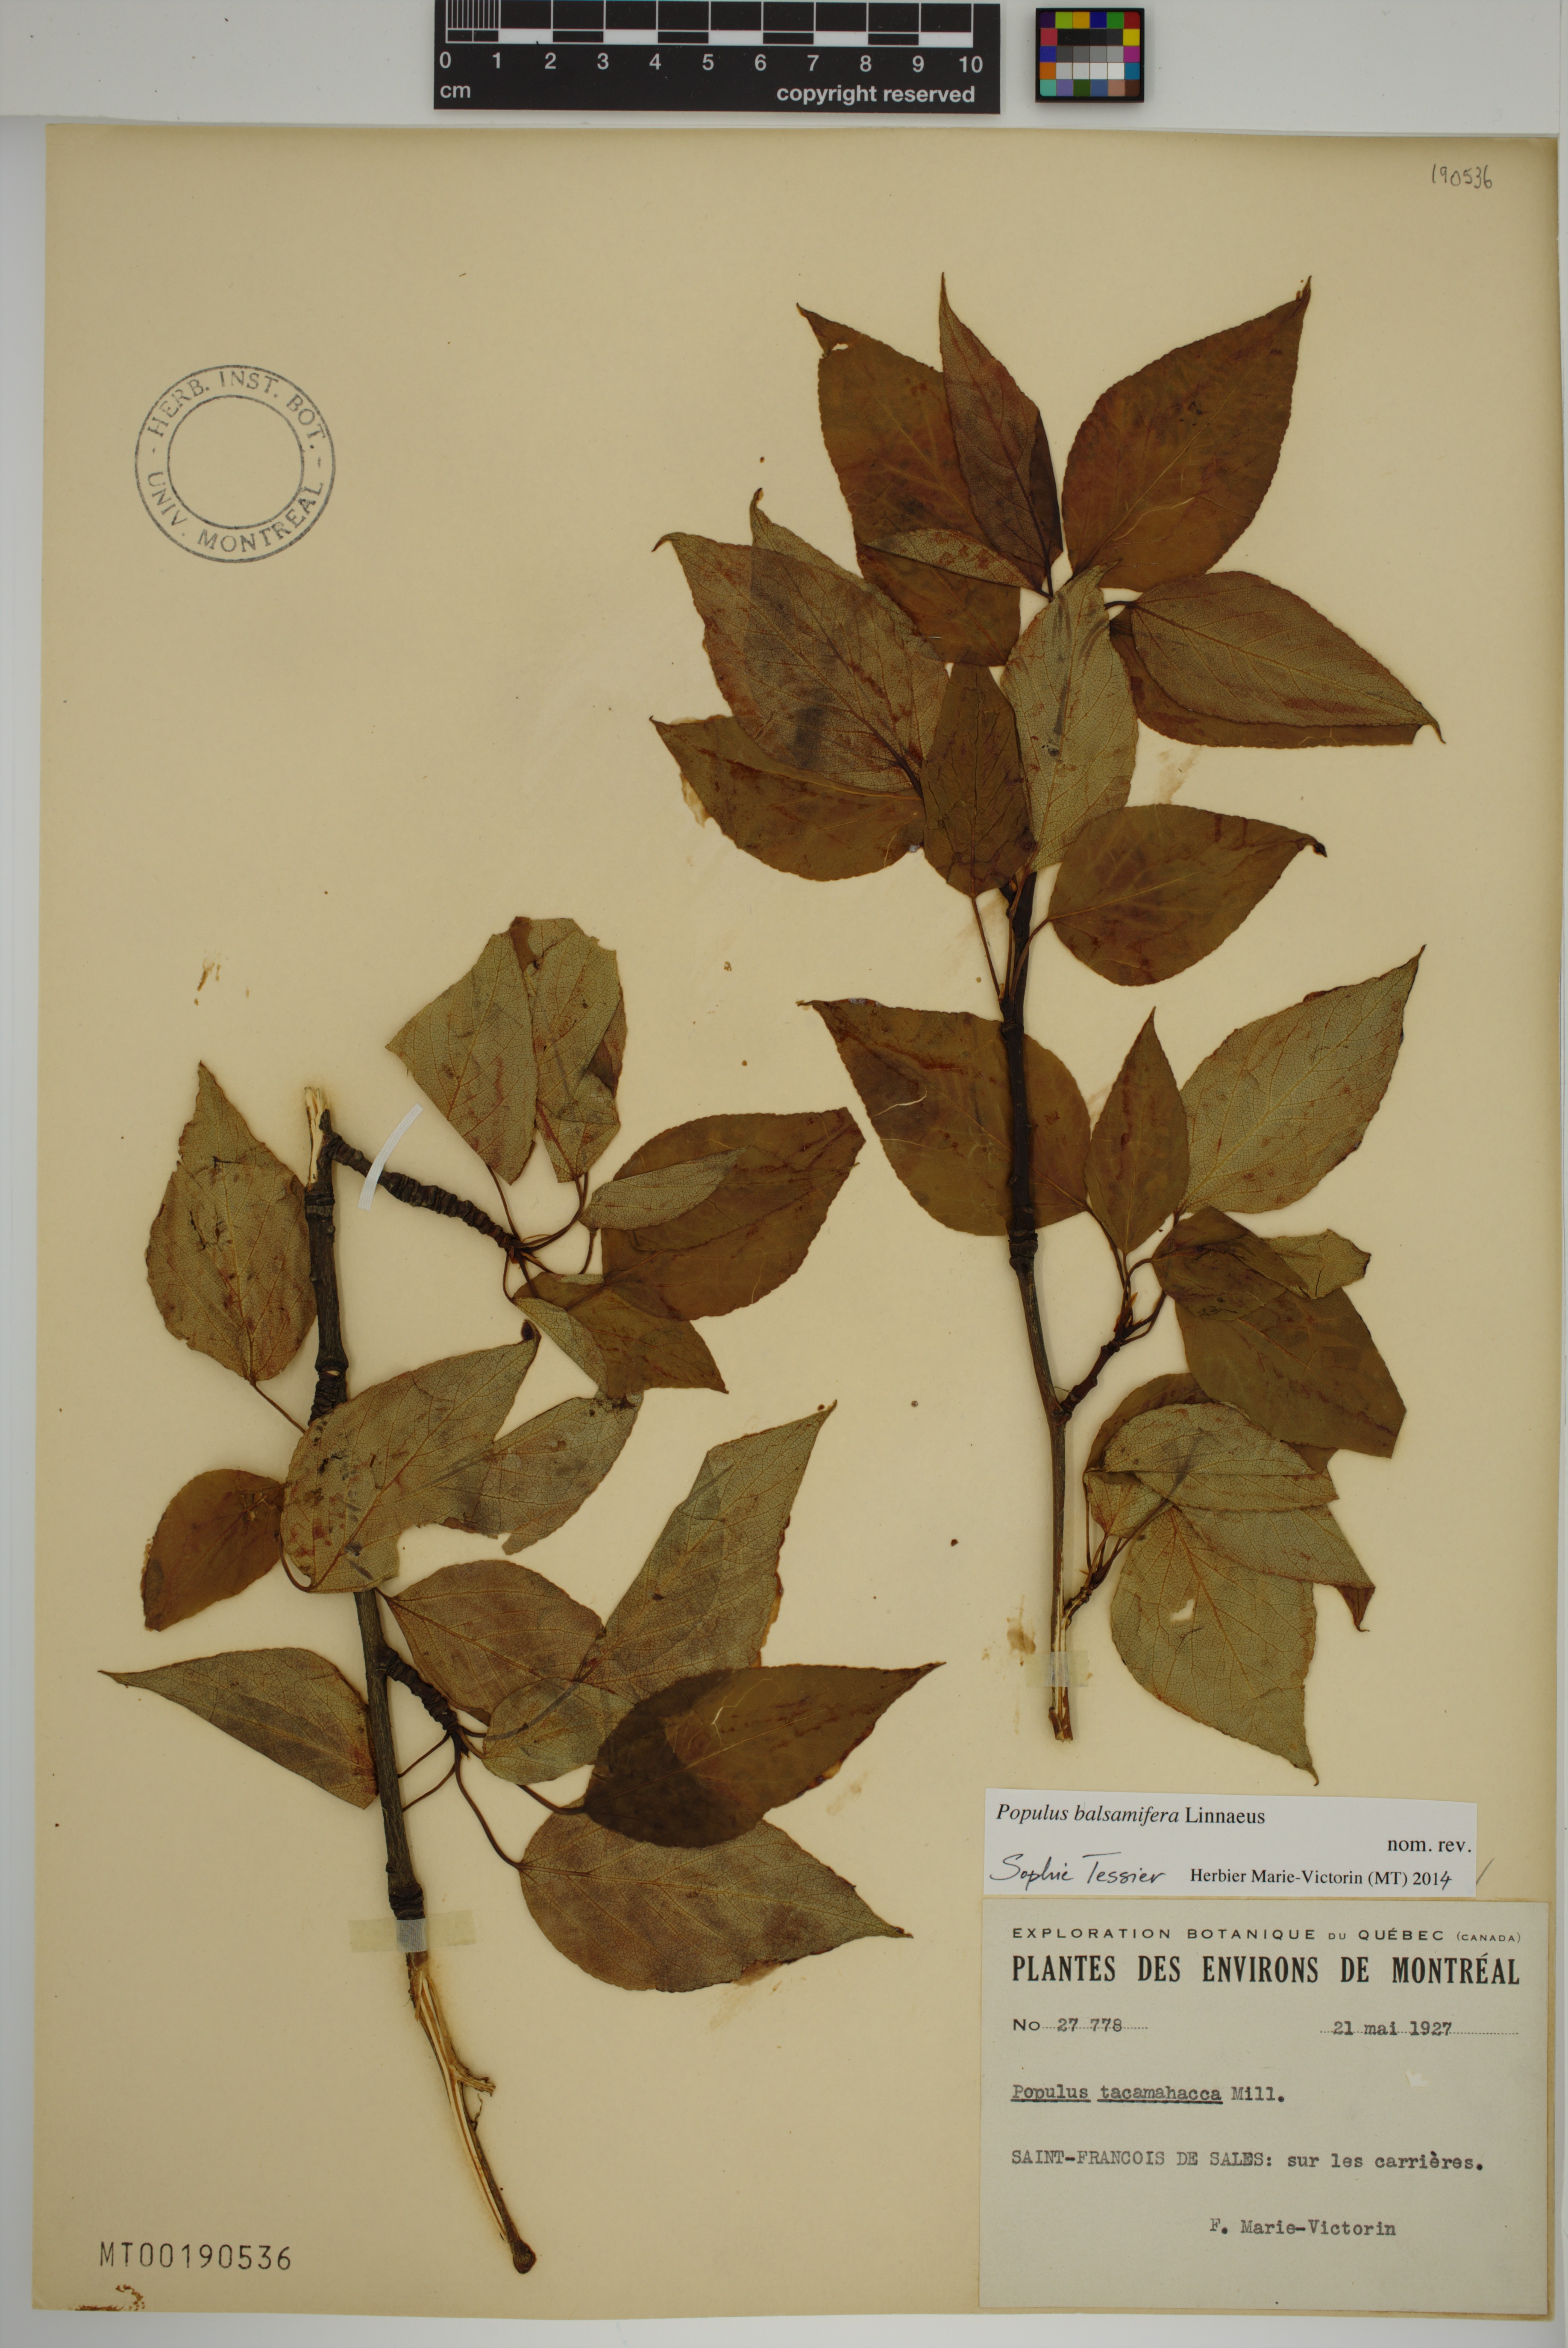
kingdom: Plantae
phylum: Tracheophyta
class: Magnoliopsida
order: Malpighiales
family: Salicaceae
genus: Populus
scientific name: Populus balsamifera
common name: Balsam poplar
